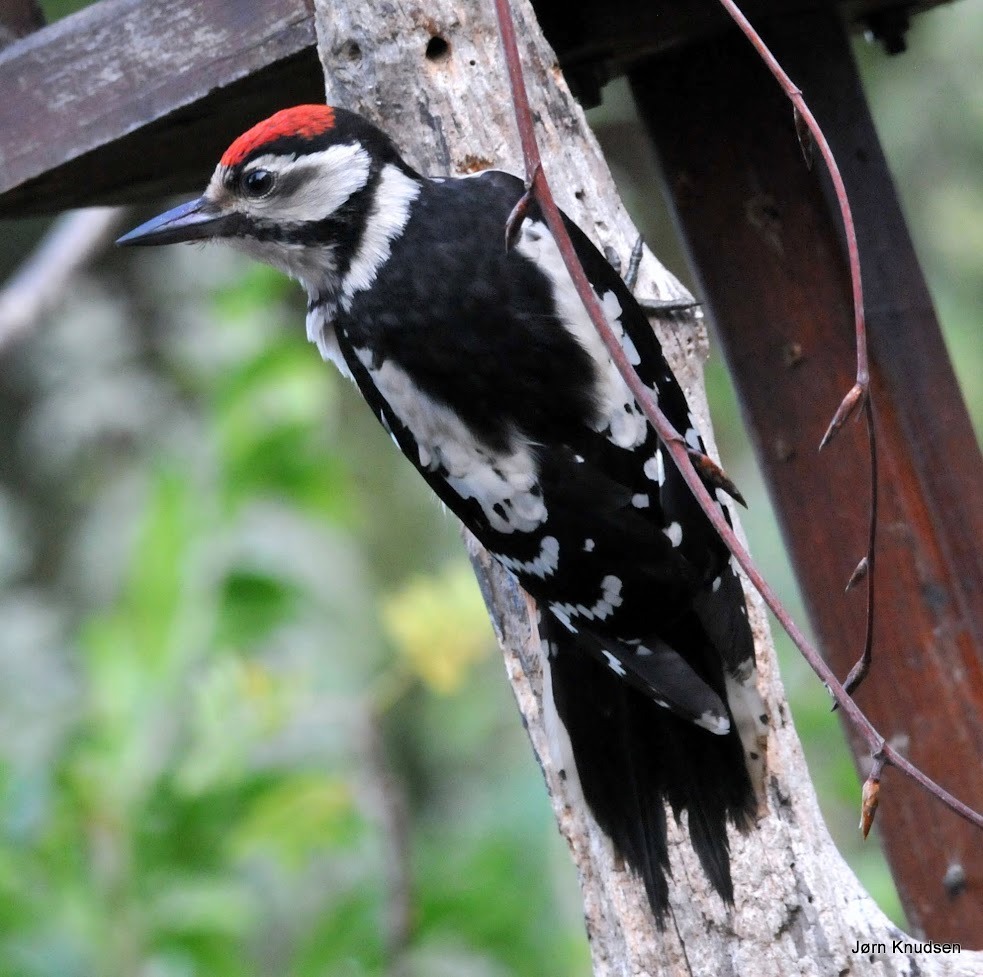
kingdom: Animalia
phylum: Chordata
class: Aves
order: Piciformes
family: Picidae
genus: Dendrocopos
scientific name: Dendrocopos major
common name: Stor flagspætte
